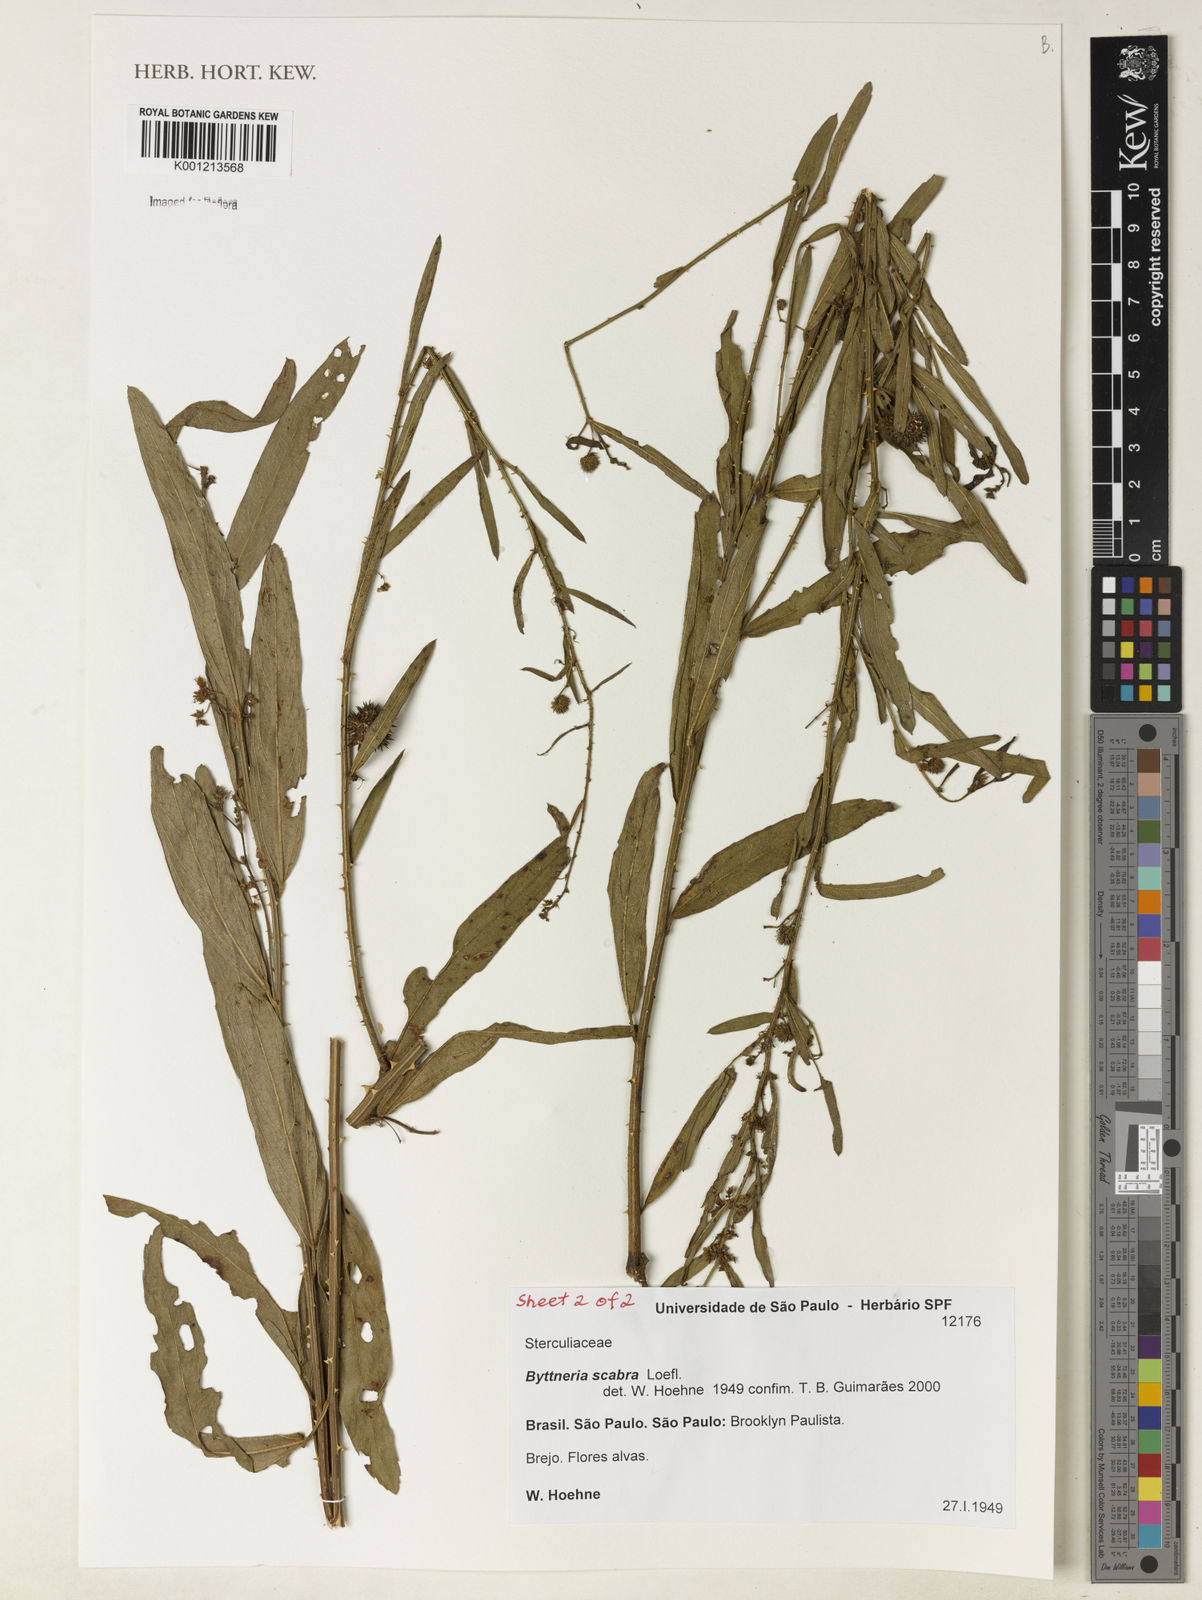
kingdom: Plantae
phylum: Tracheophyta
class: Magnoliopsida
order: Malvales
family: Malvaceae
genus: Byttneria
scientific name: Byttneria
